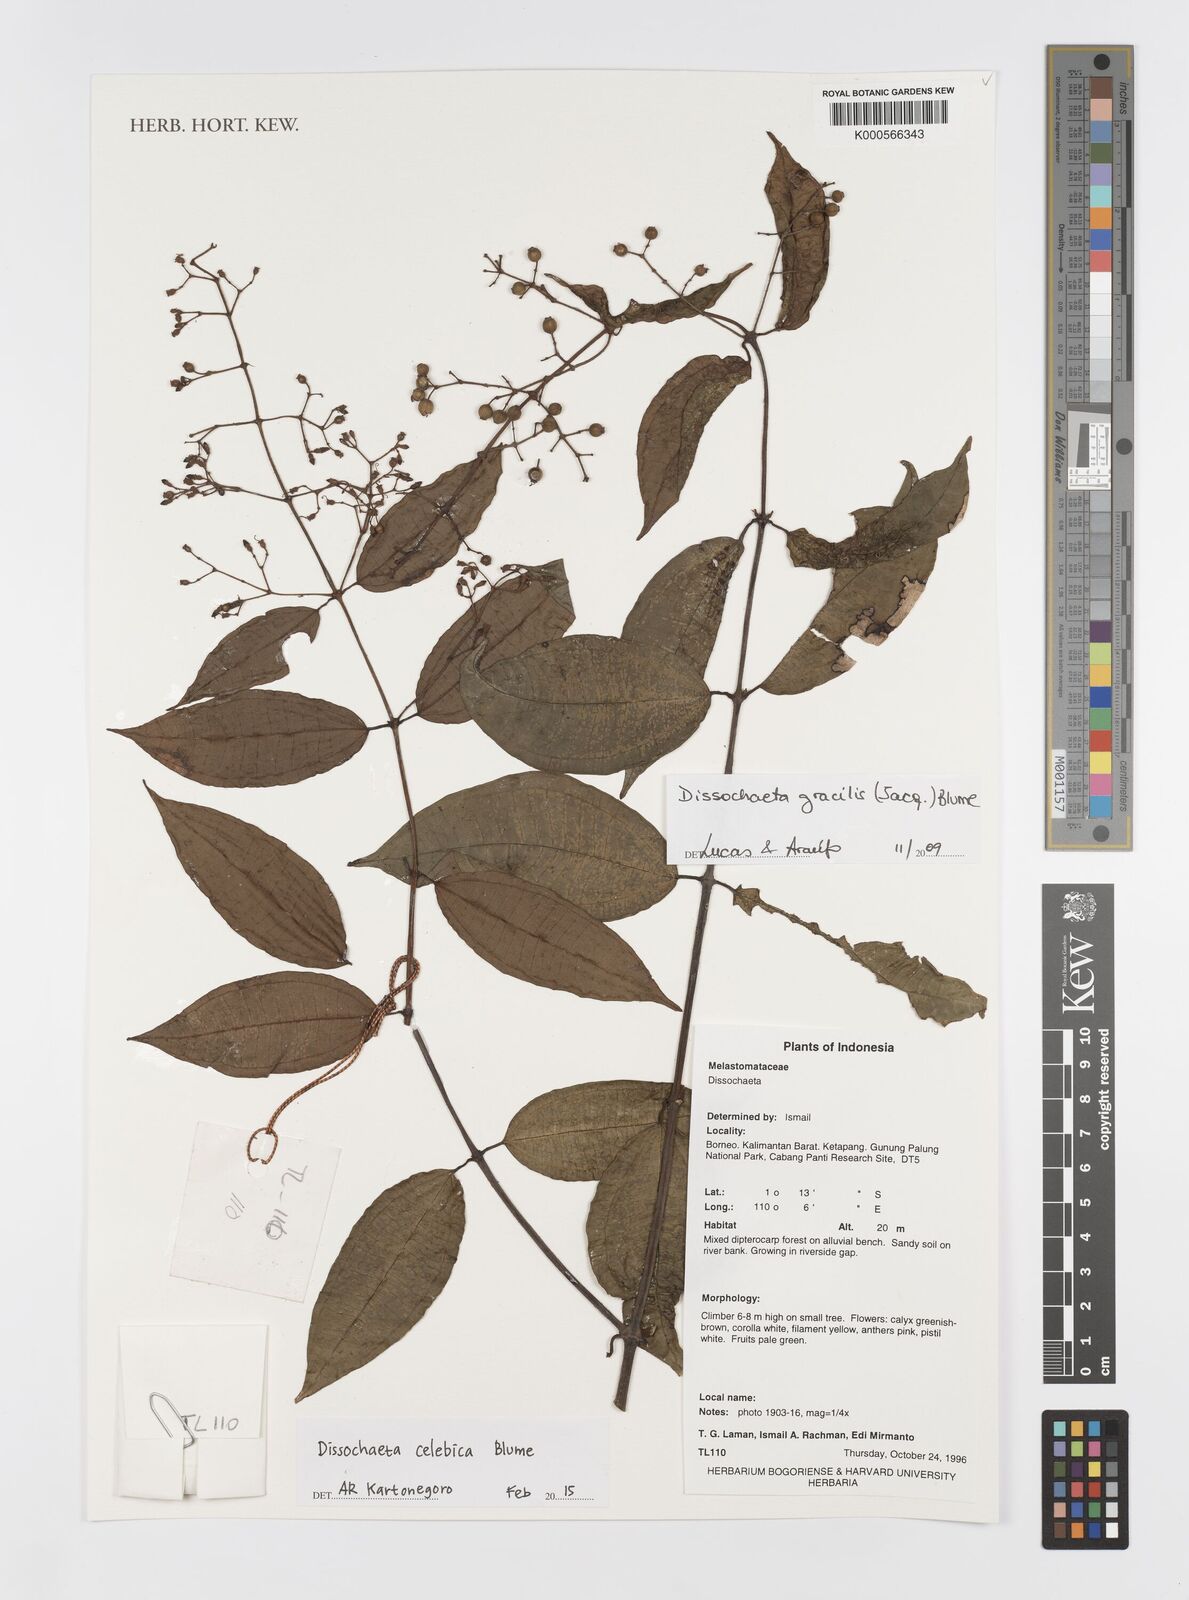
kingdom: Plantae
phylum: Tracheophyta
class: Magnoliopsida
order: Myrtales
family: Melastomataceae
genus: Dissochaeta
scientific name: Dissochaeta celebica
